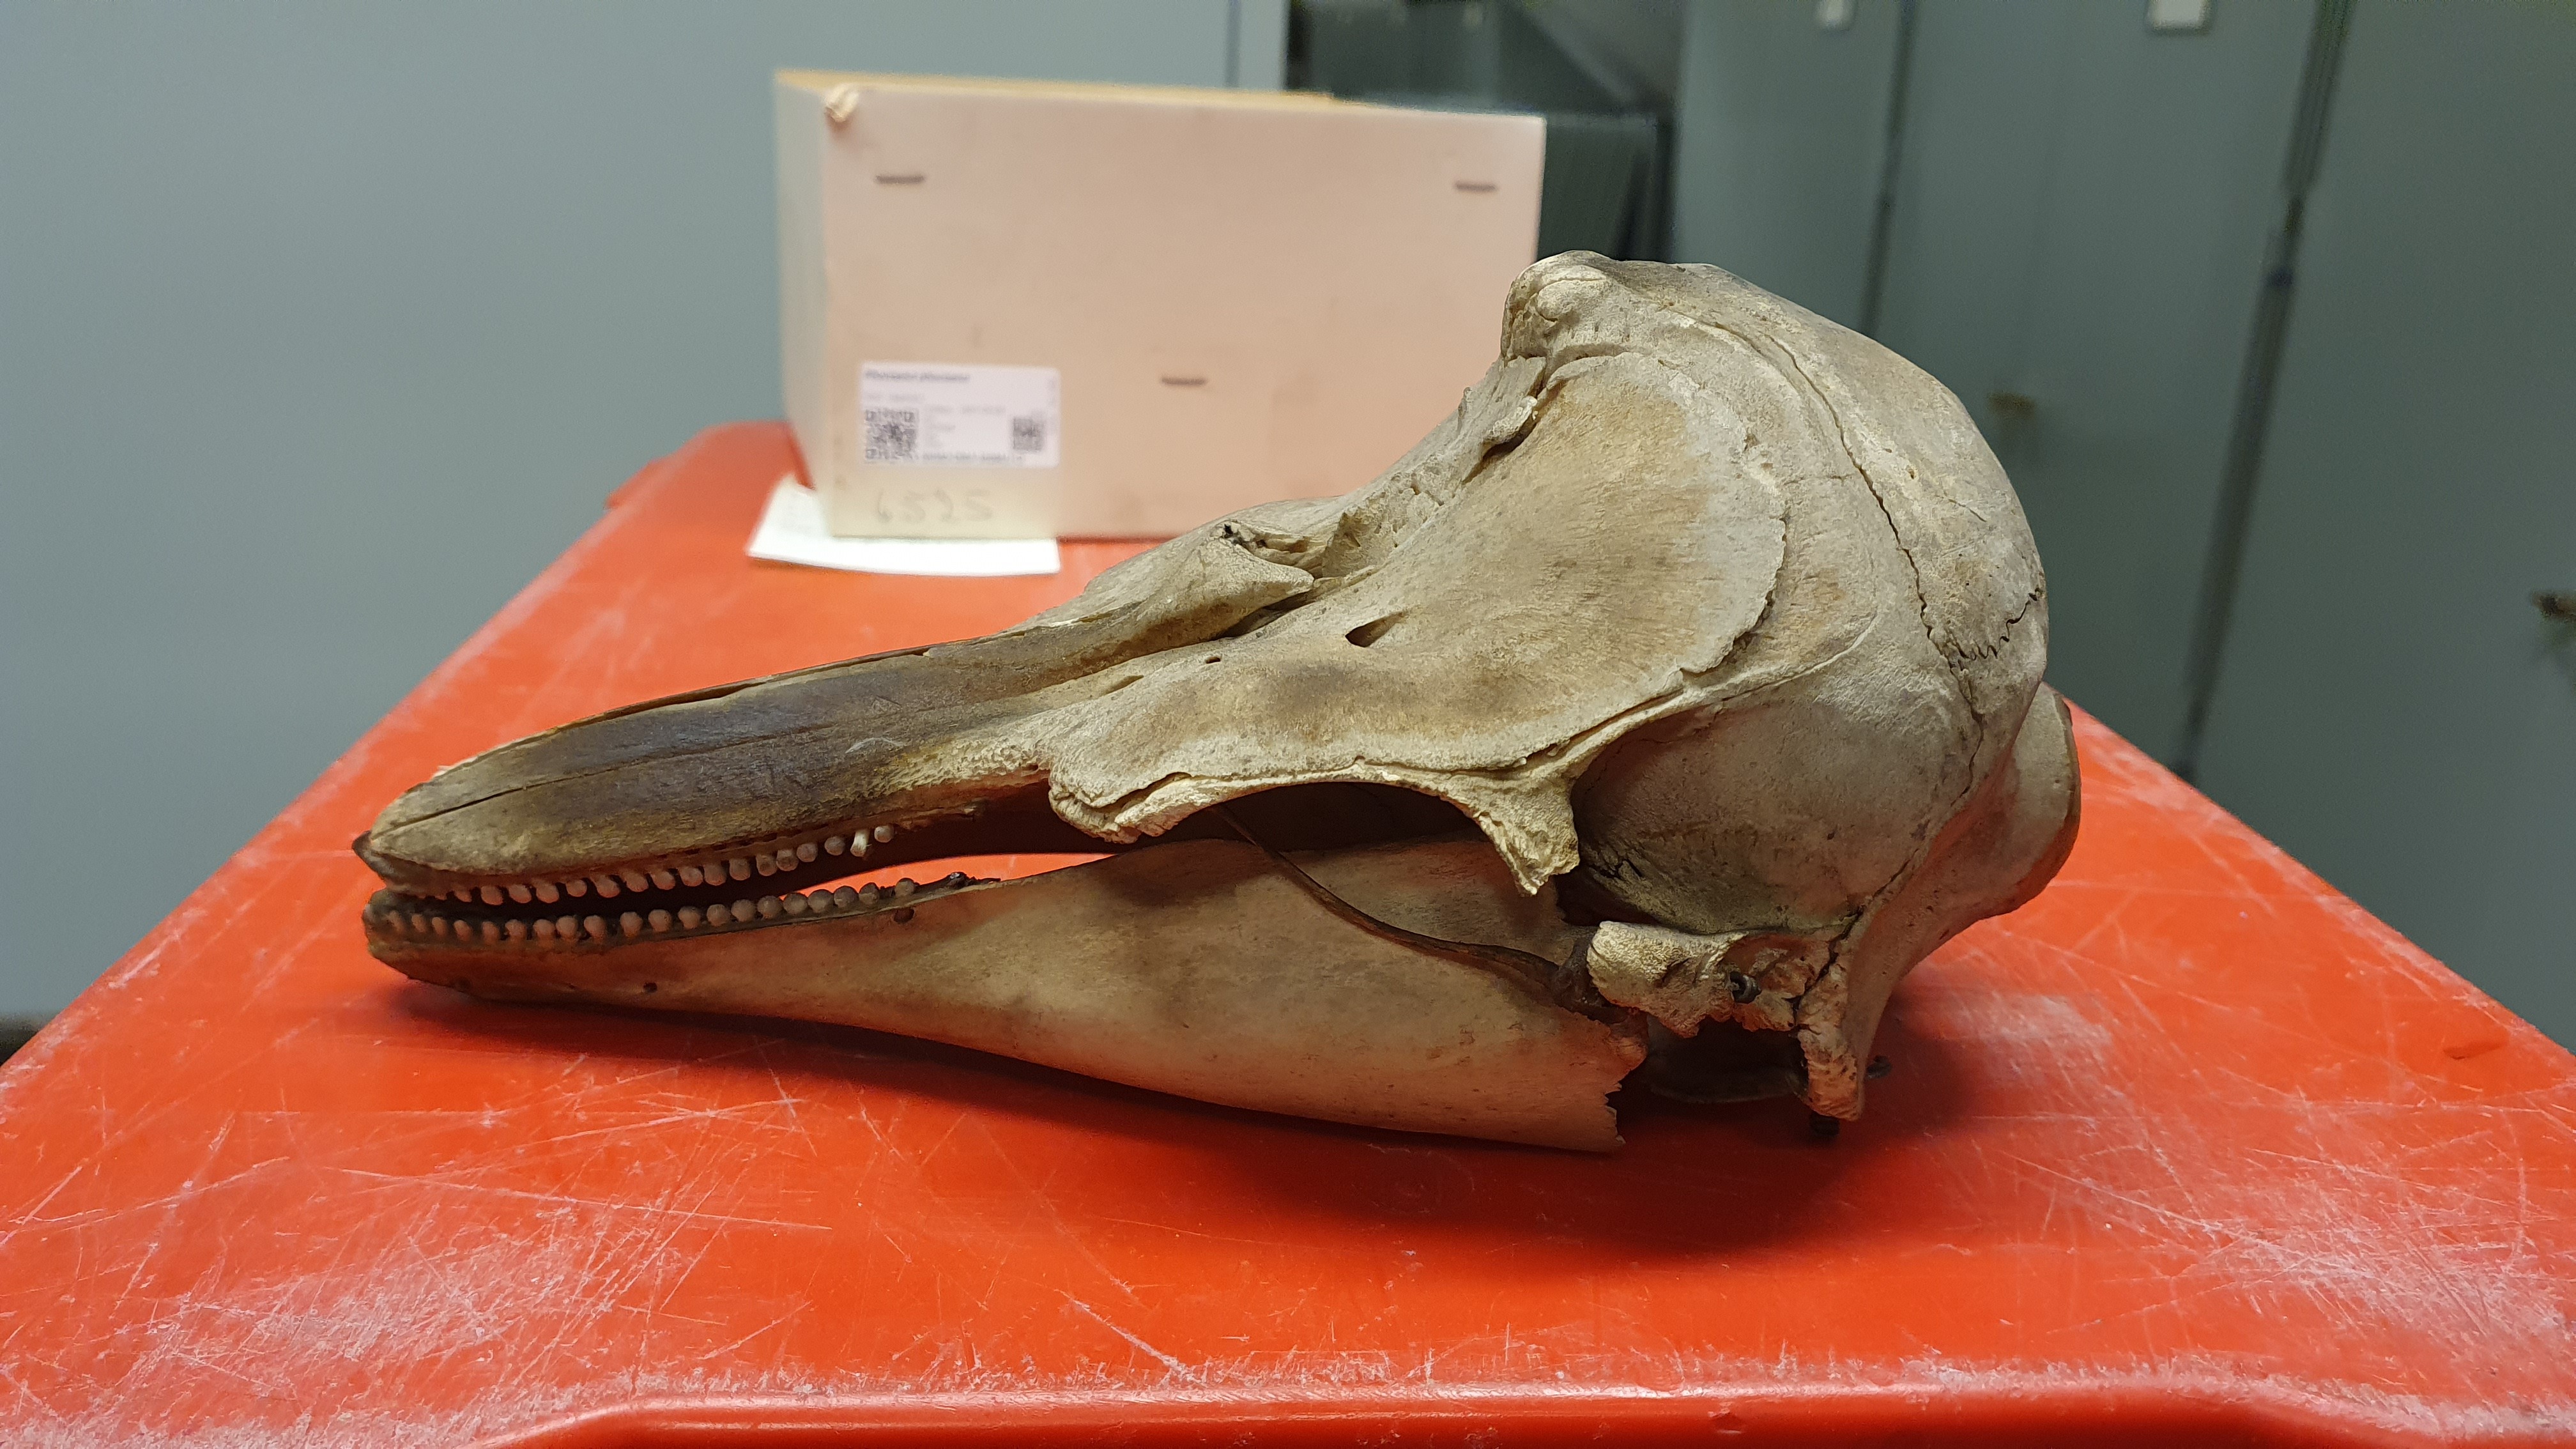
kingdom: Animalia
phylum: Chordata
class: Mammalia
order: Cetacea
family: Phocoenidae
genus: Phocoena
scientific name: Phocoena phocoena
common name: Harbor porpoise
